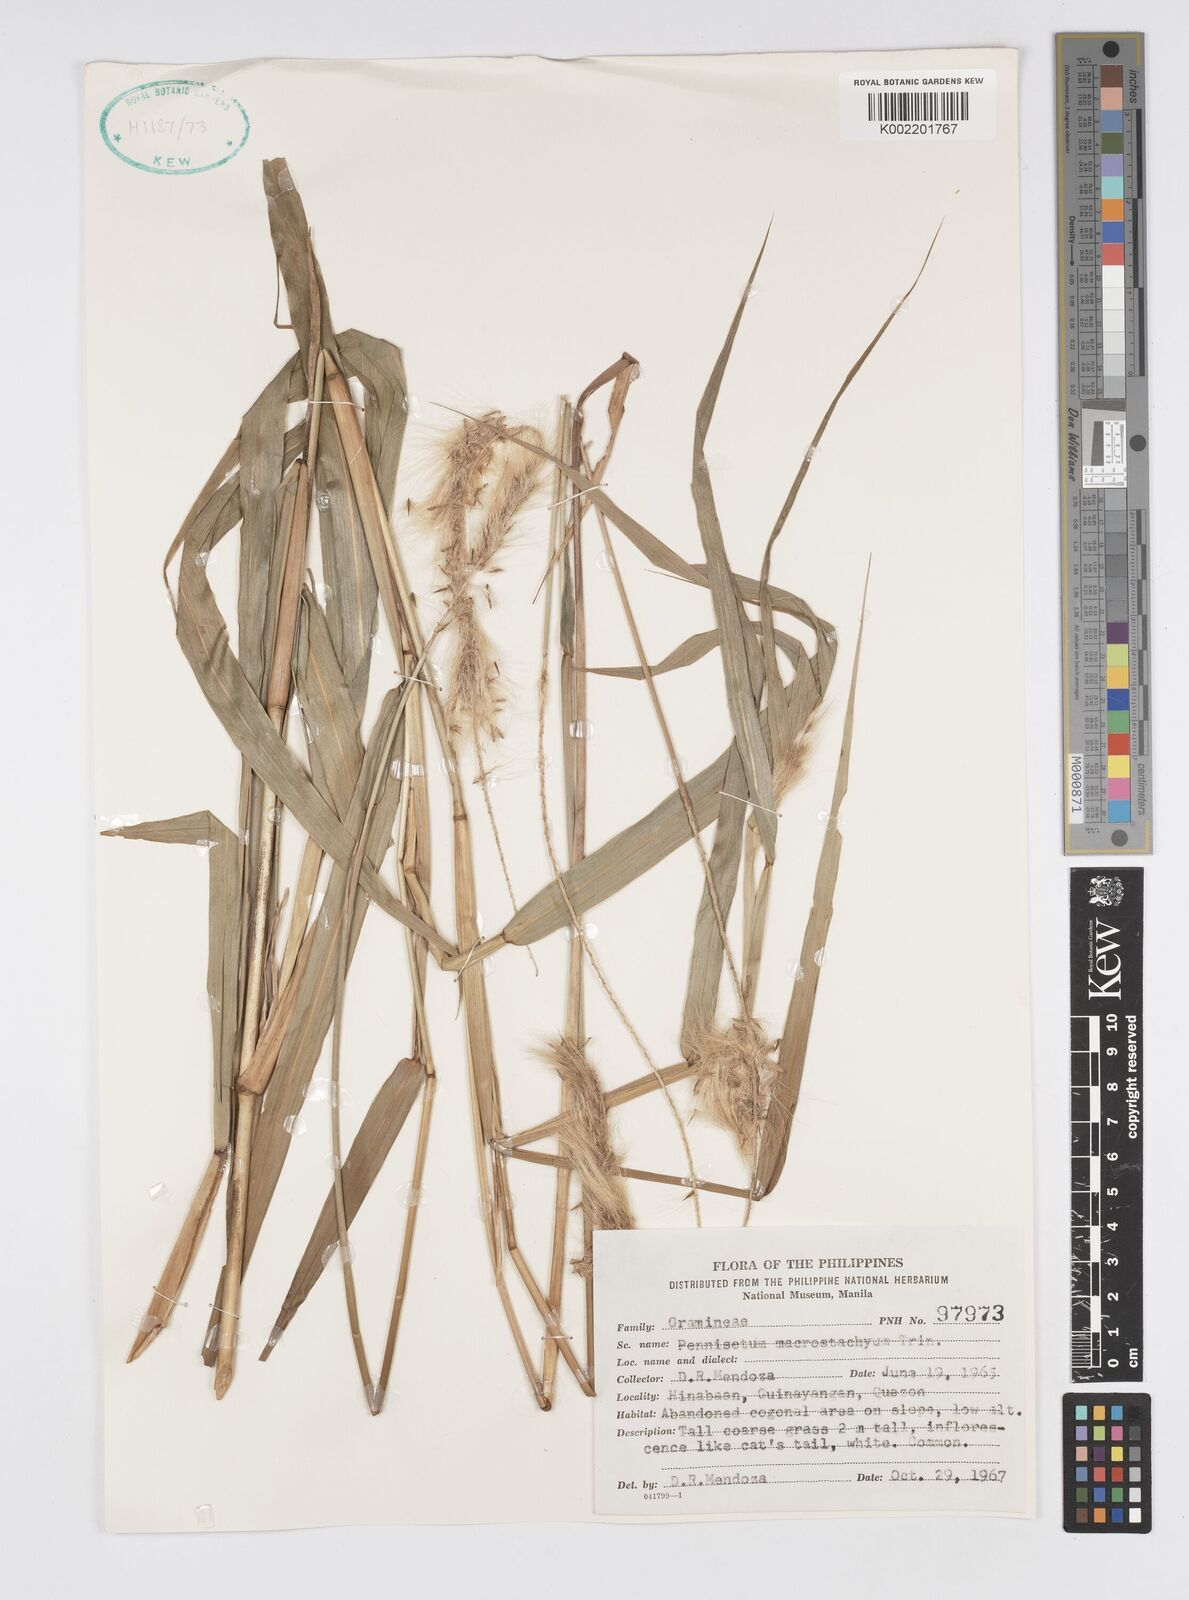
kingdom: Plantae
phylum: Tracheophyta
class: Liliopsida
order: Poales
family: Poaceae
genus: Cenchrus
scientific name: Cenchrus purpureus
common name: Elephant grass
